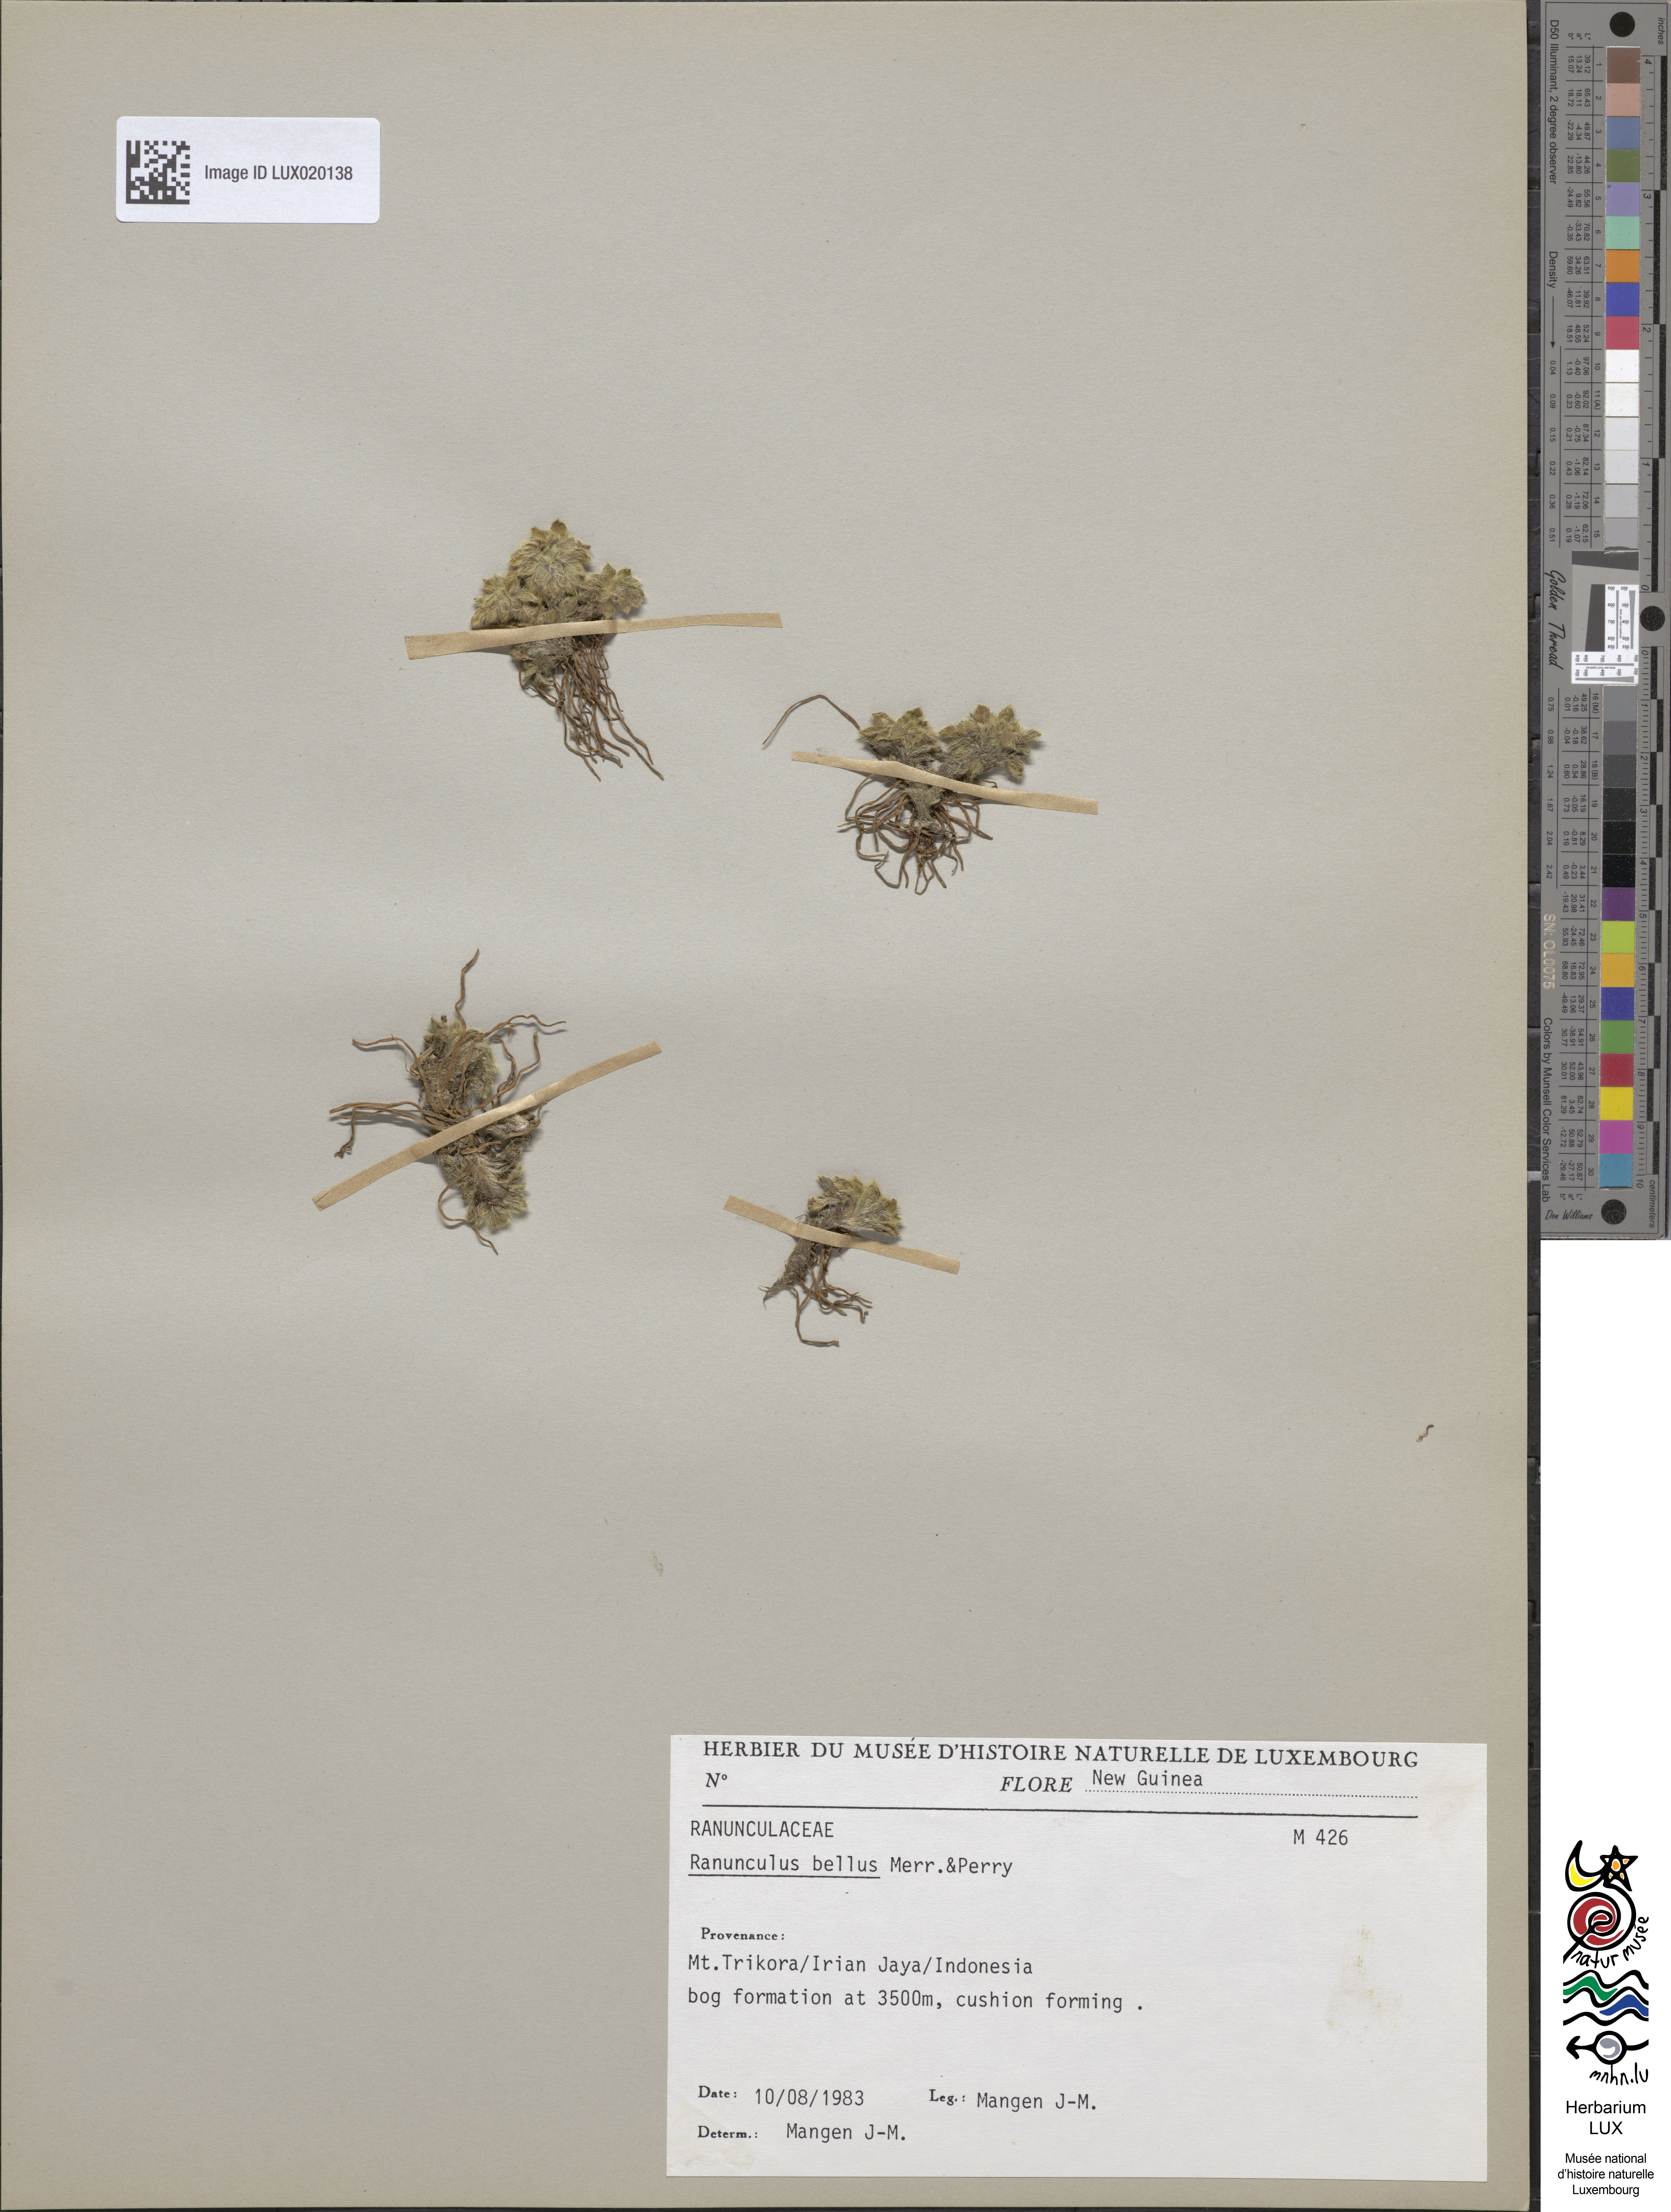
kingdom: Plantae
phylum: Tracheophyta
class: Magnoliopsida
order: Ranunculales
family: Ranunculaceae
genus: Ranunculus
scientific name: Ranunculus bellus
